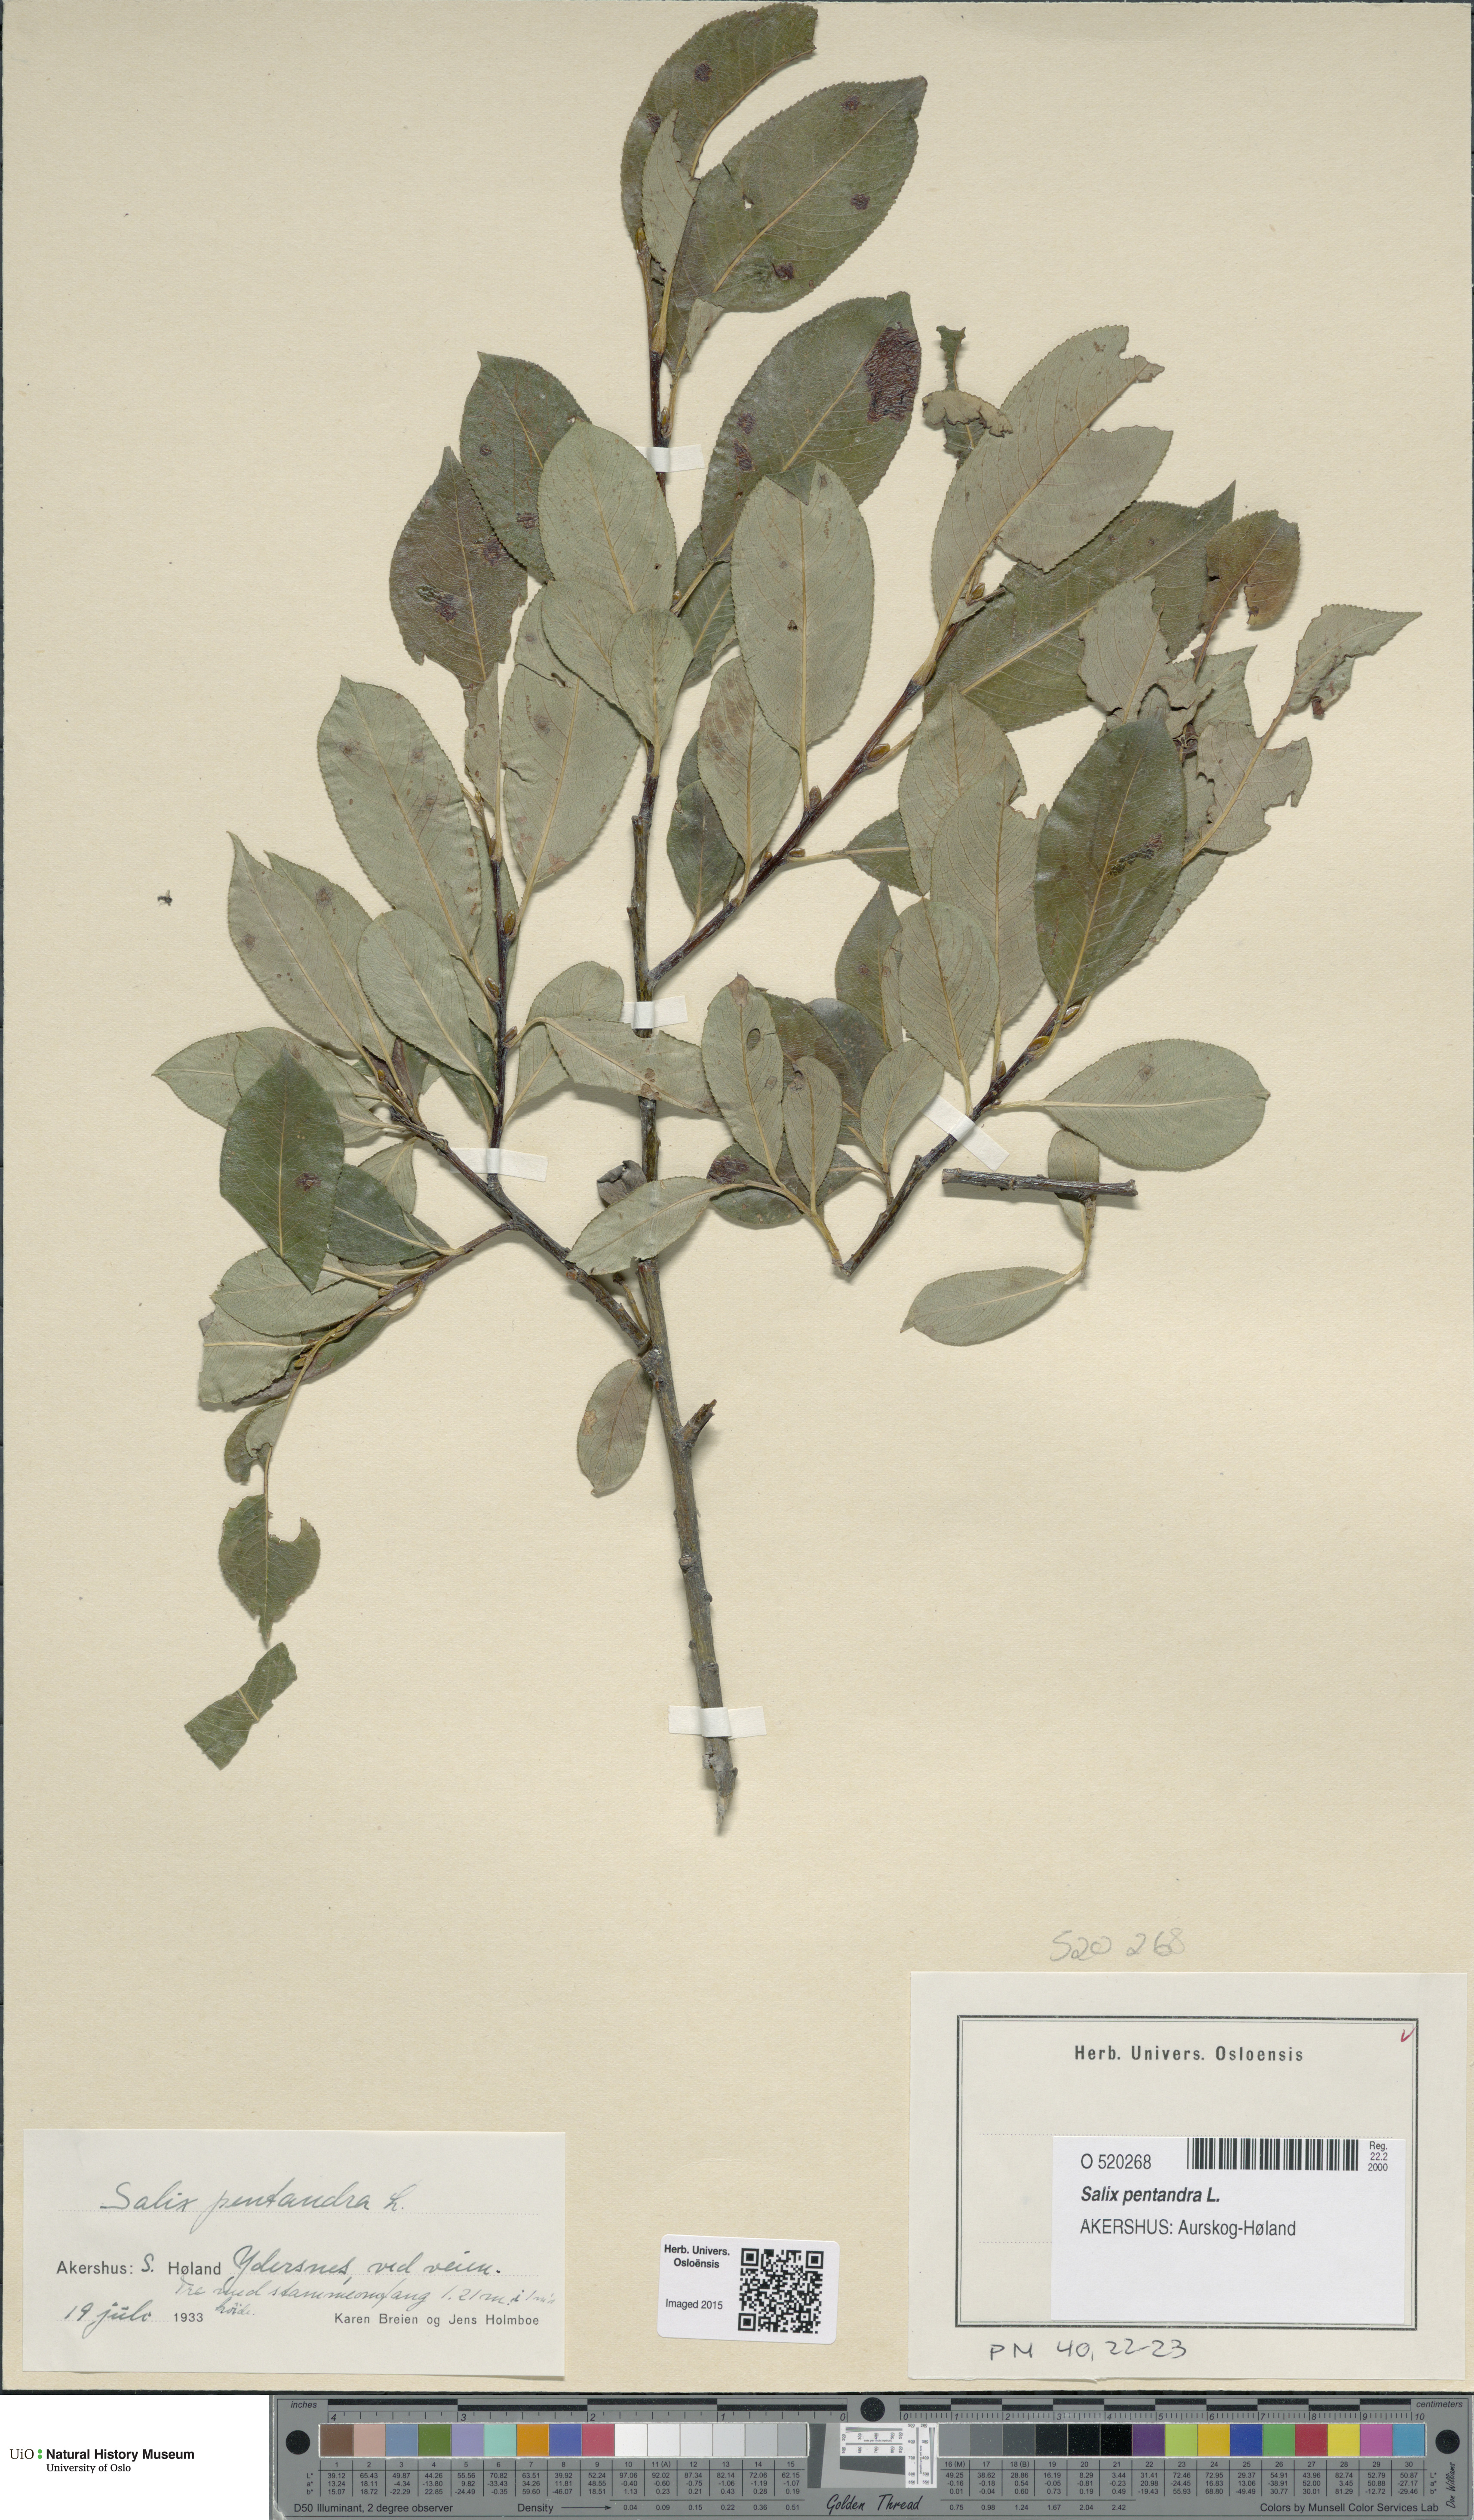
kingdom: Plantae
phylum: Tracheophyta
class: Magnoliopsida
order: Malpighiales
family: Salicaceae
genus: Salix
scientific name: Salix pentandra
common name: Bay willow
